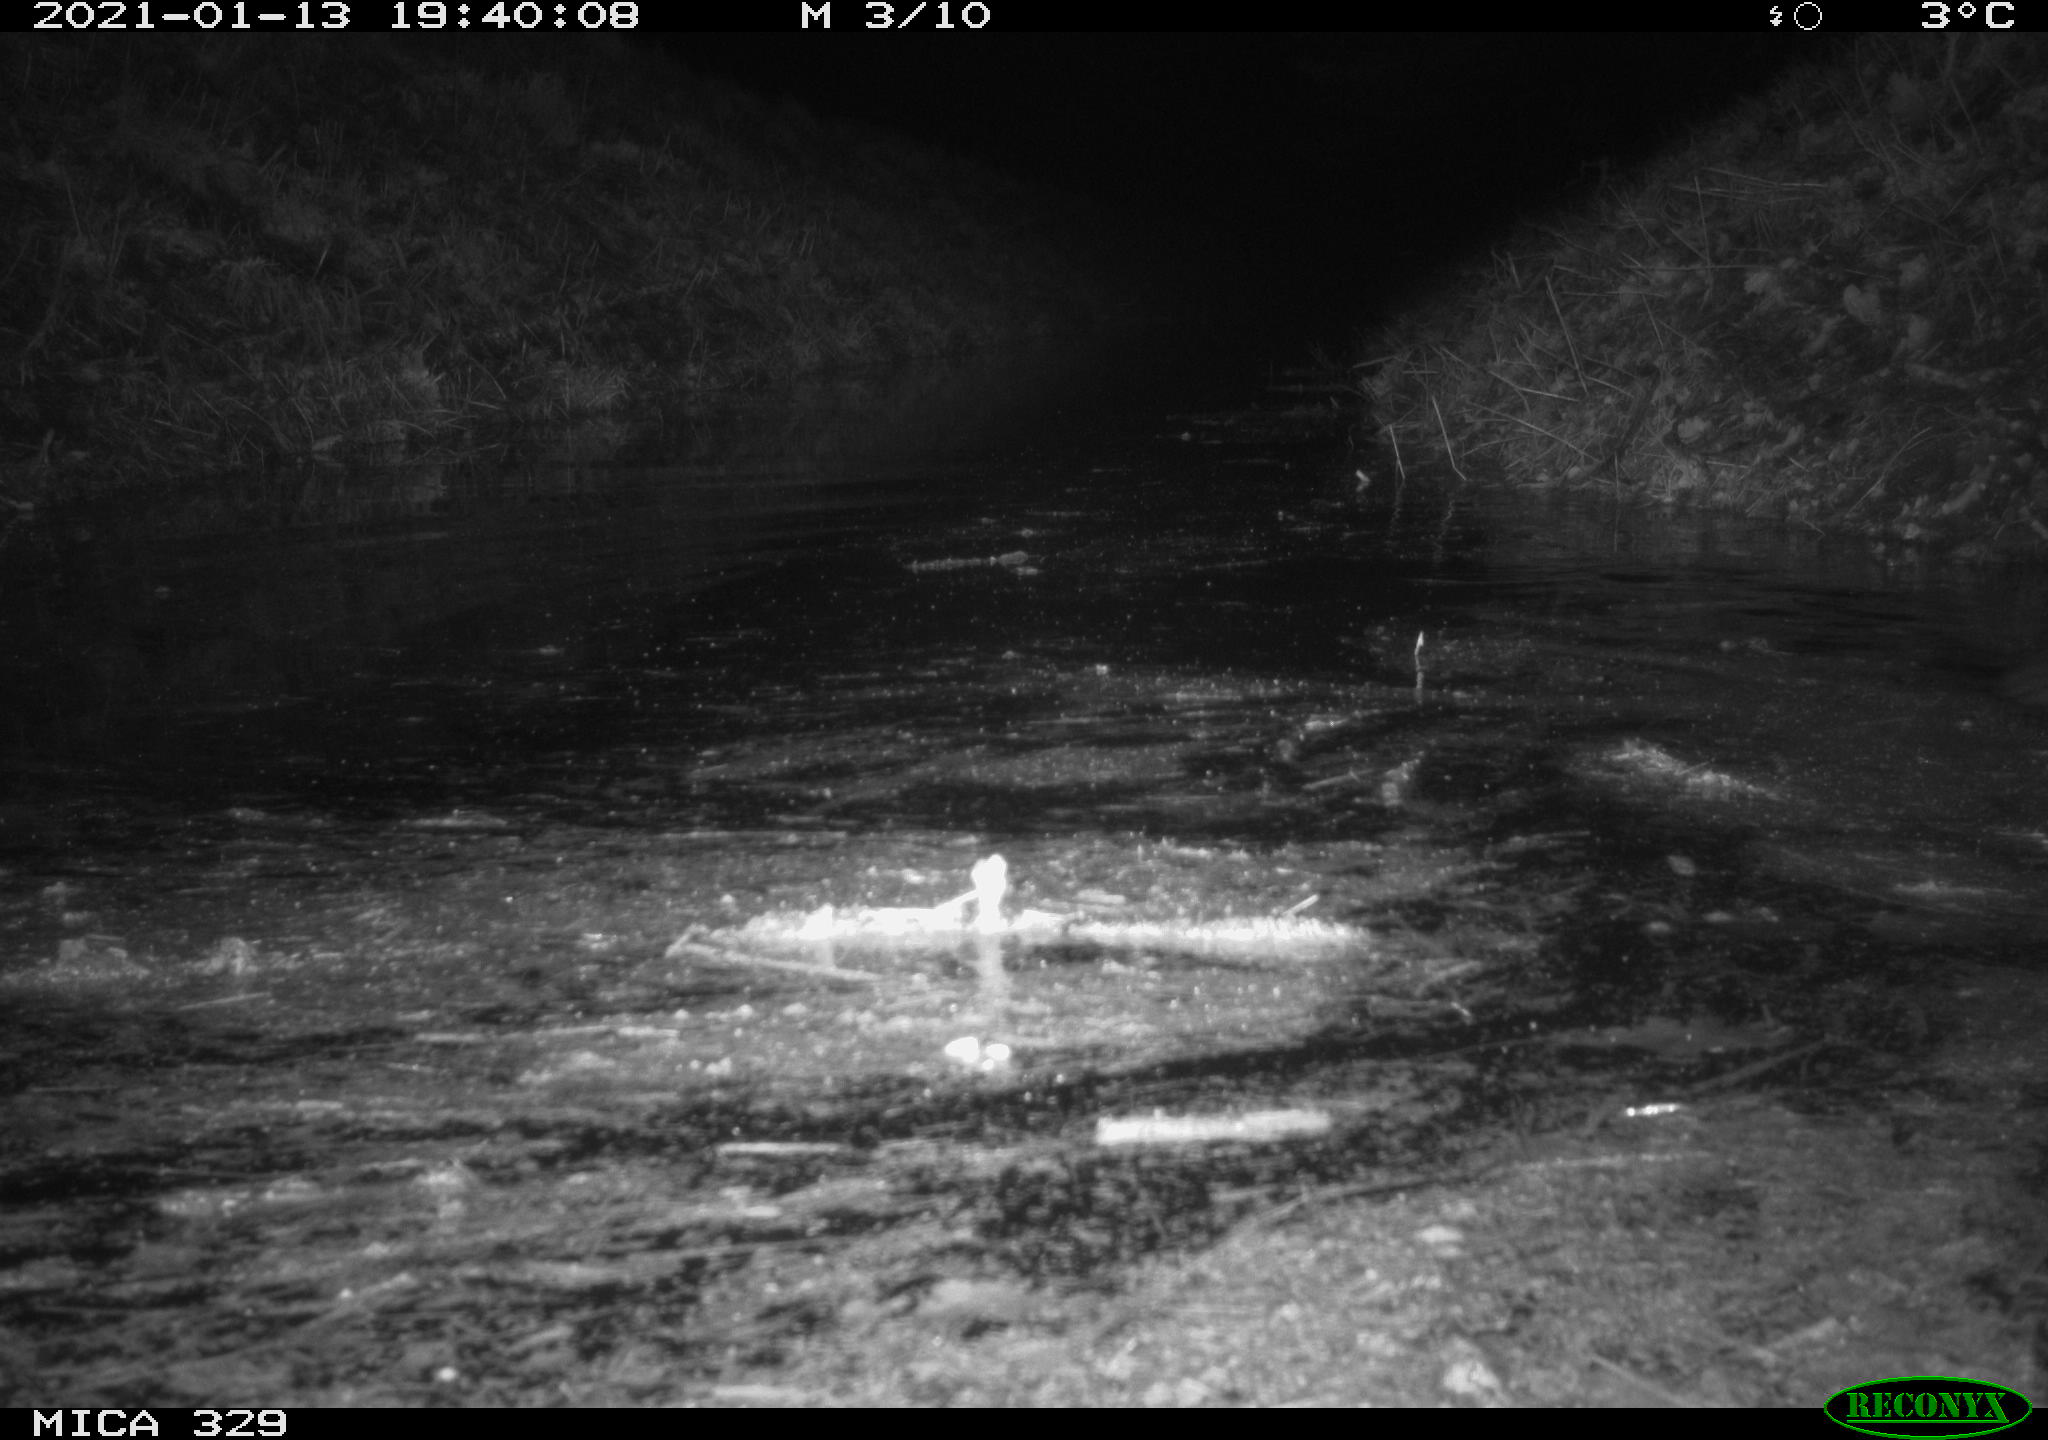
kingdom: Animalia
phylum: Chordata
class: Mammalia
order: Rodentia
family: Myocastoridae
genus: Myocastor
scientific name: Myocastor coypus
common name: Coypu
